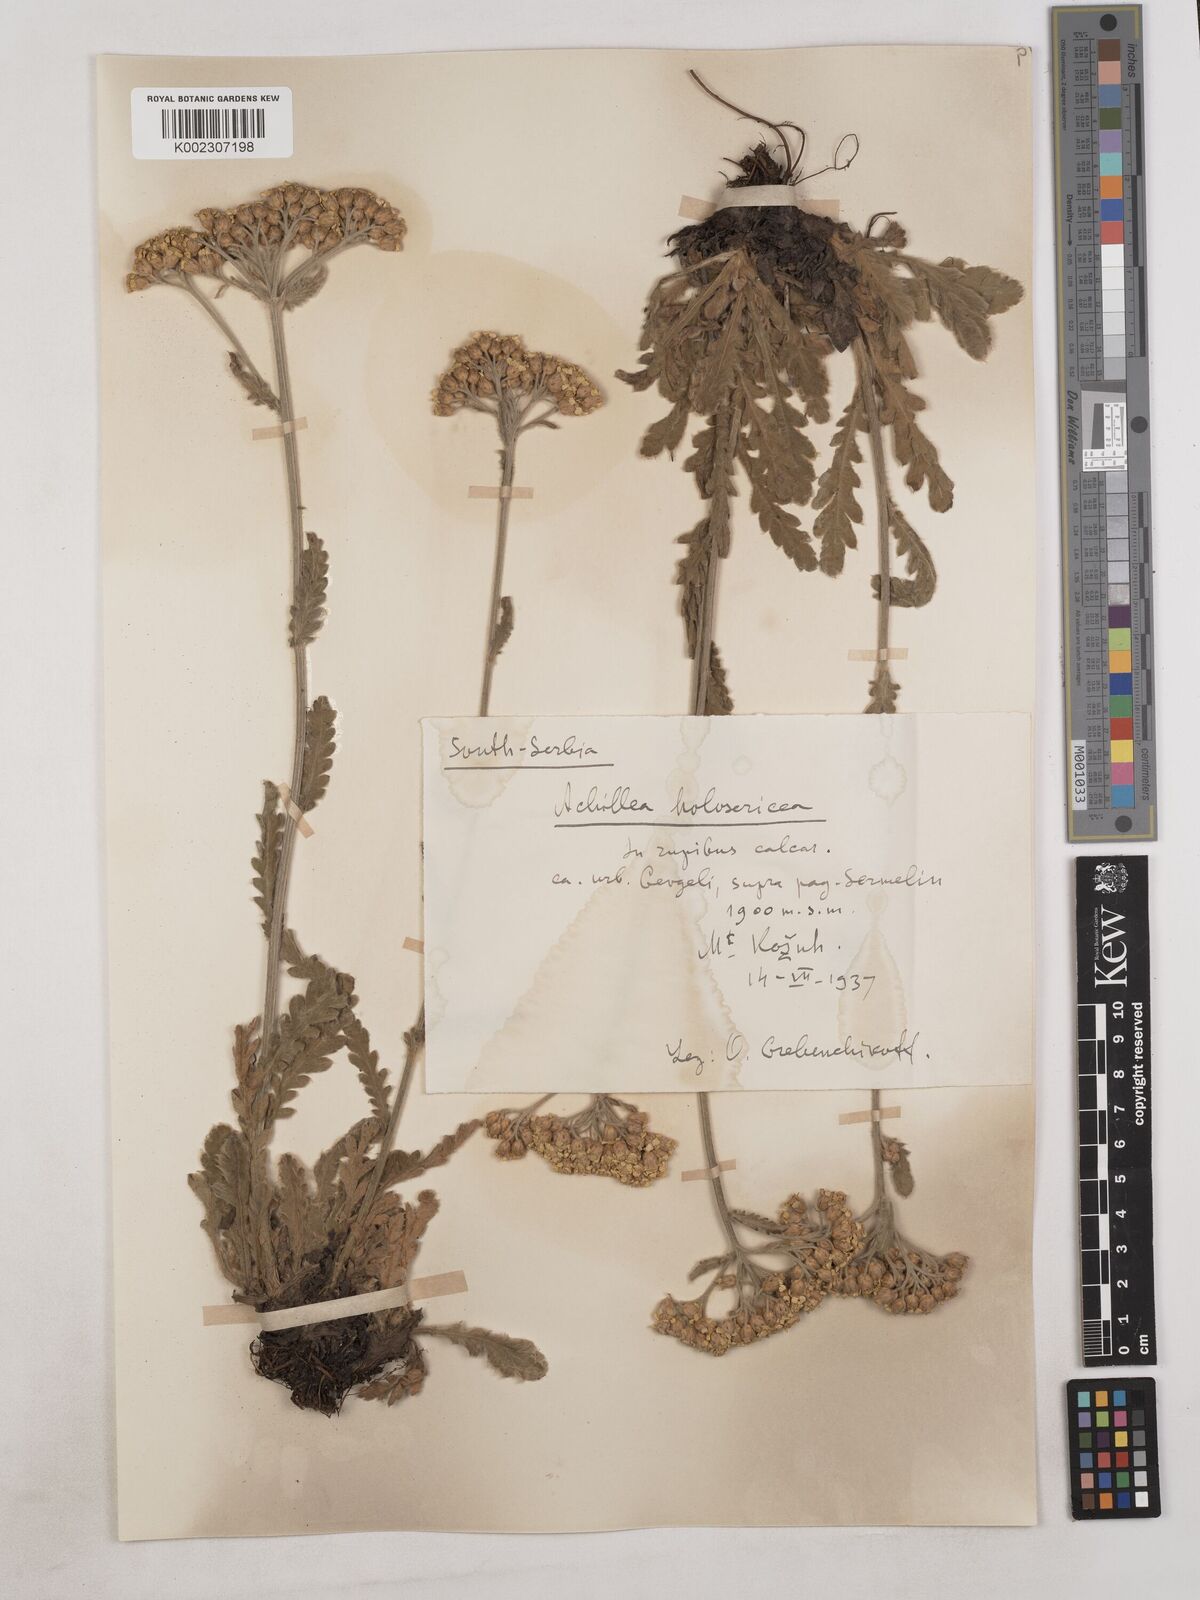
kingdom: Plantae
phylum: Tracheophyta
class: Magnoliopsida
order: Asterales
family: Asteraceae
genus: Achillea
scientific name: Achillea holosericea
